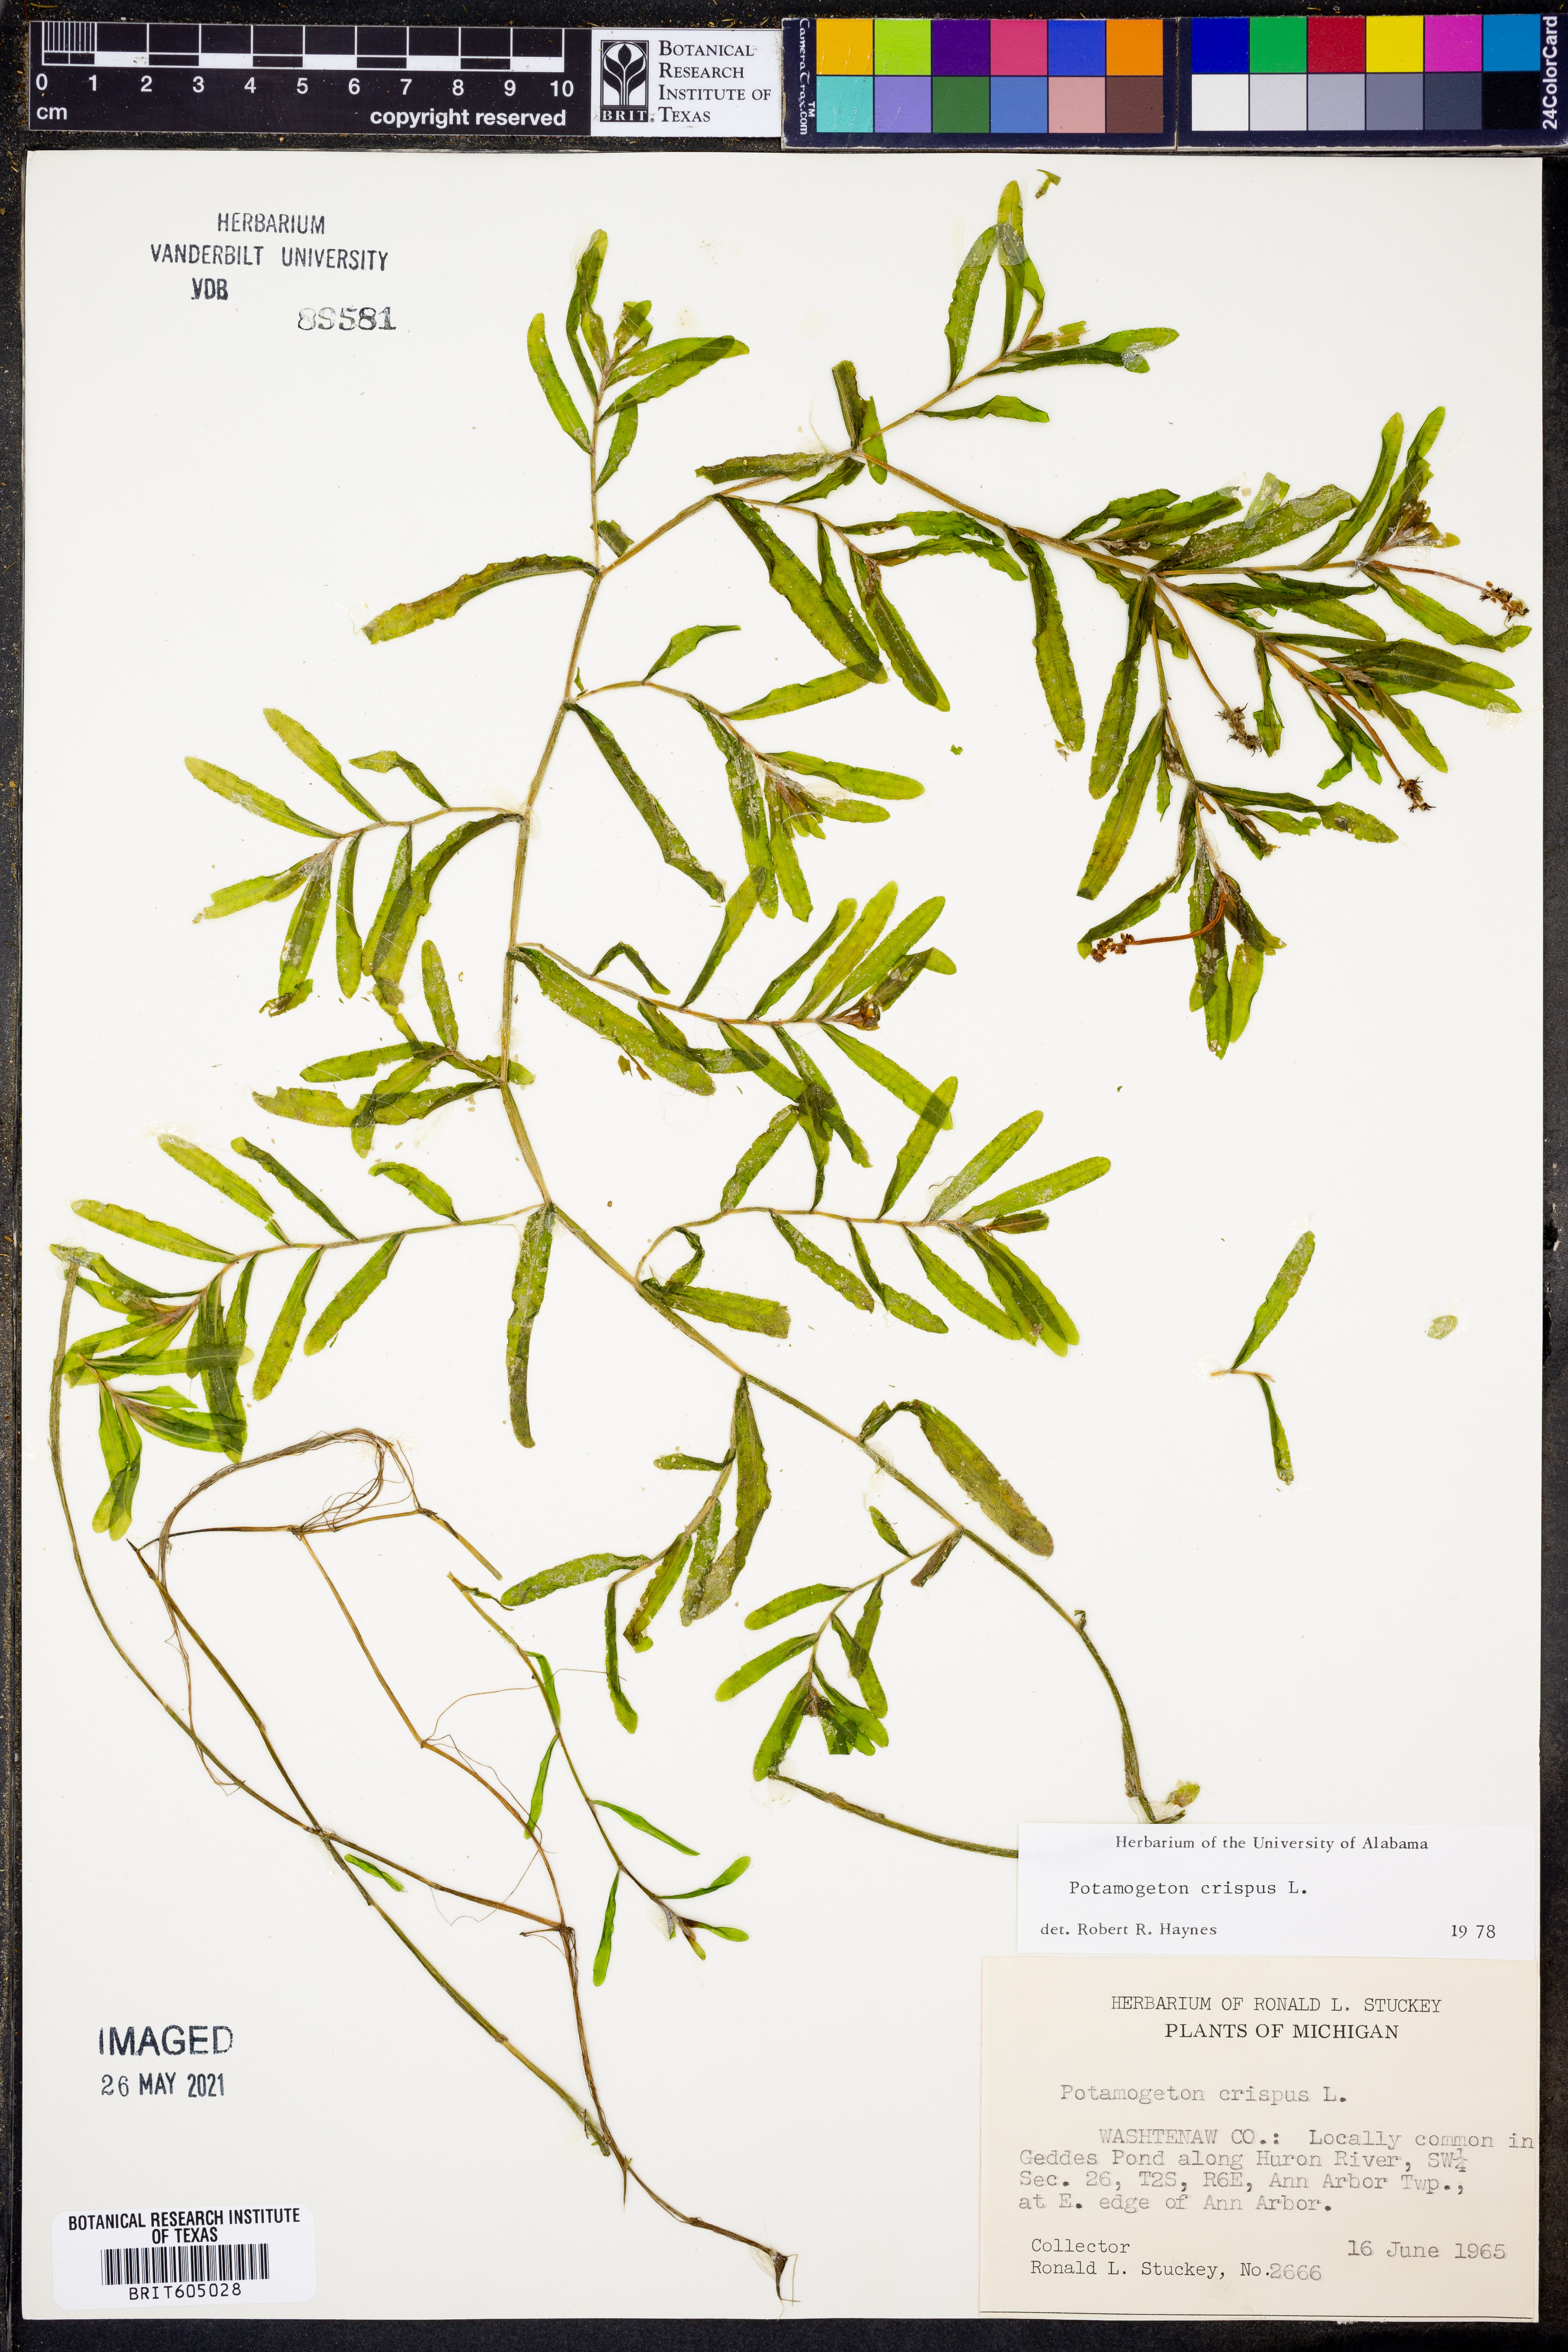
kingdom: Plantae
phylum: Tracheophyta
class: Liliopsida
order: Alismatales
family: Potamogetonaceae
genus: Potamogeton
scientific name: Potamogeton crispus
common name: Curled pondweed
